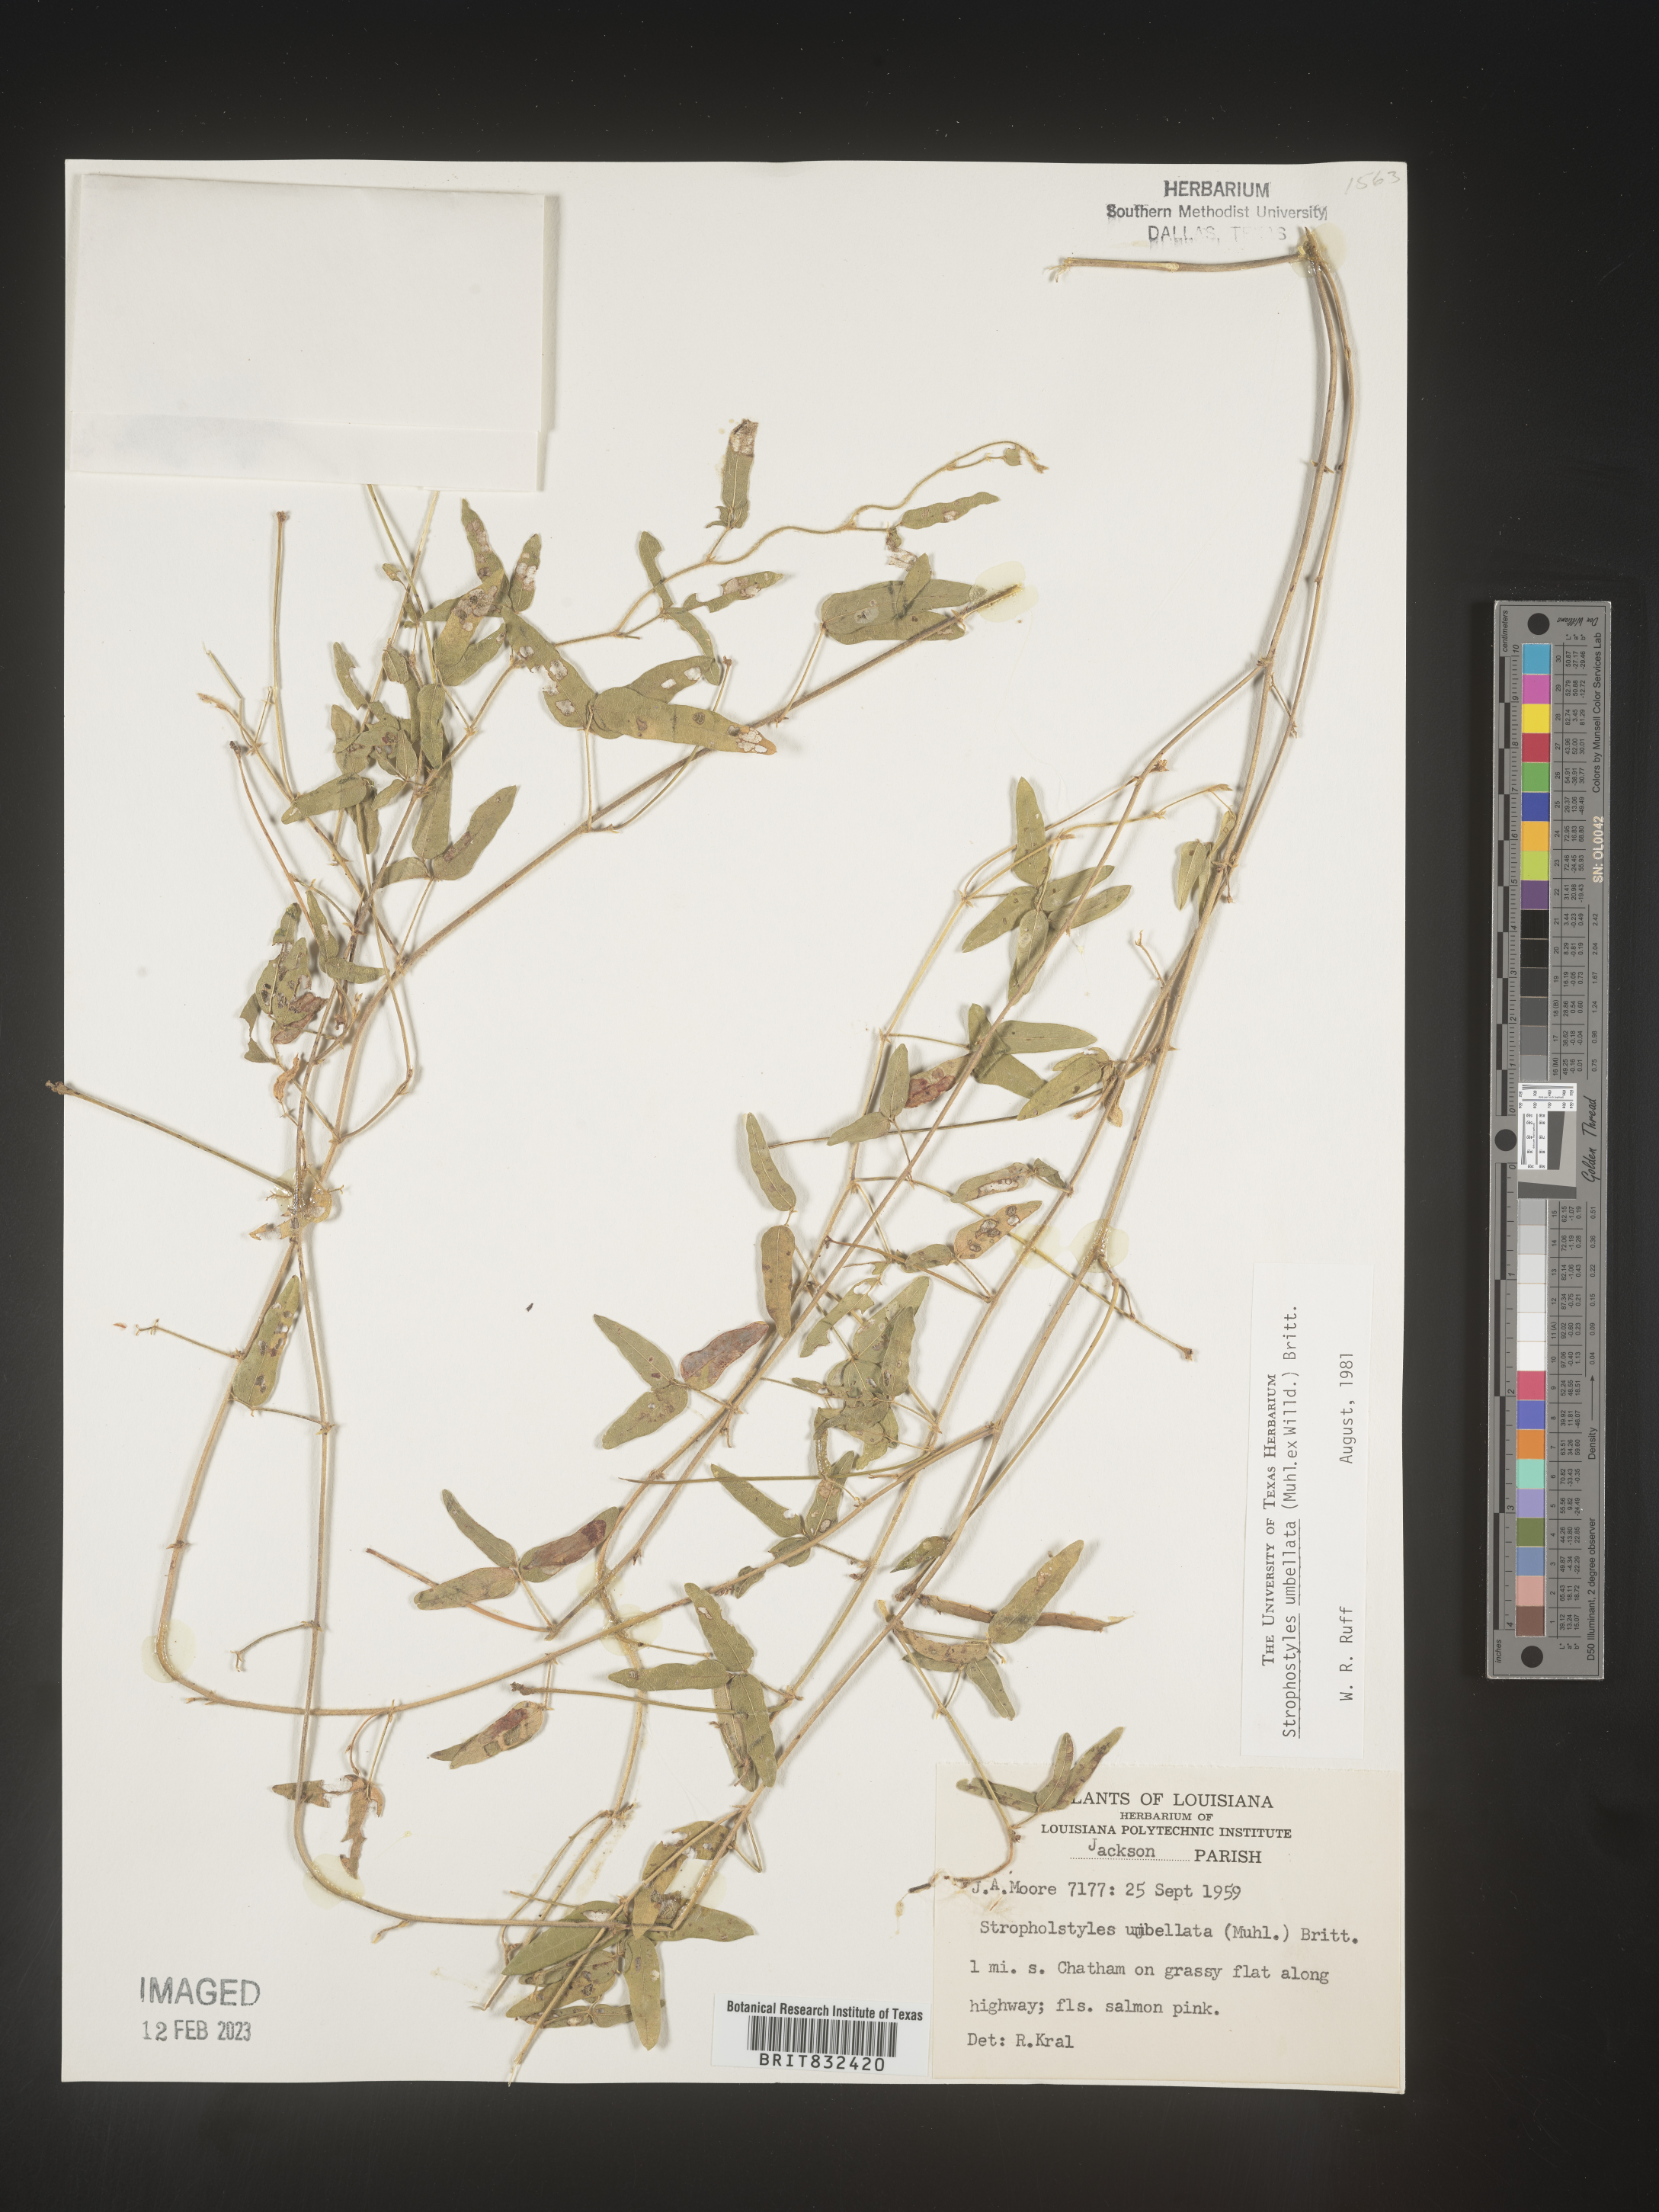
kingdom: Plantae
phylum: Tracheophyta
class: Magnoliopsida
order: Fabales
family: Fabaceae
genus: Strophostyles
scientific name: Strophostyles umbellata
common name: Perennial wild bean
